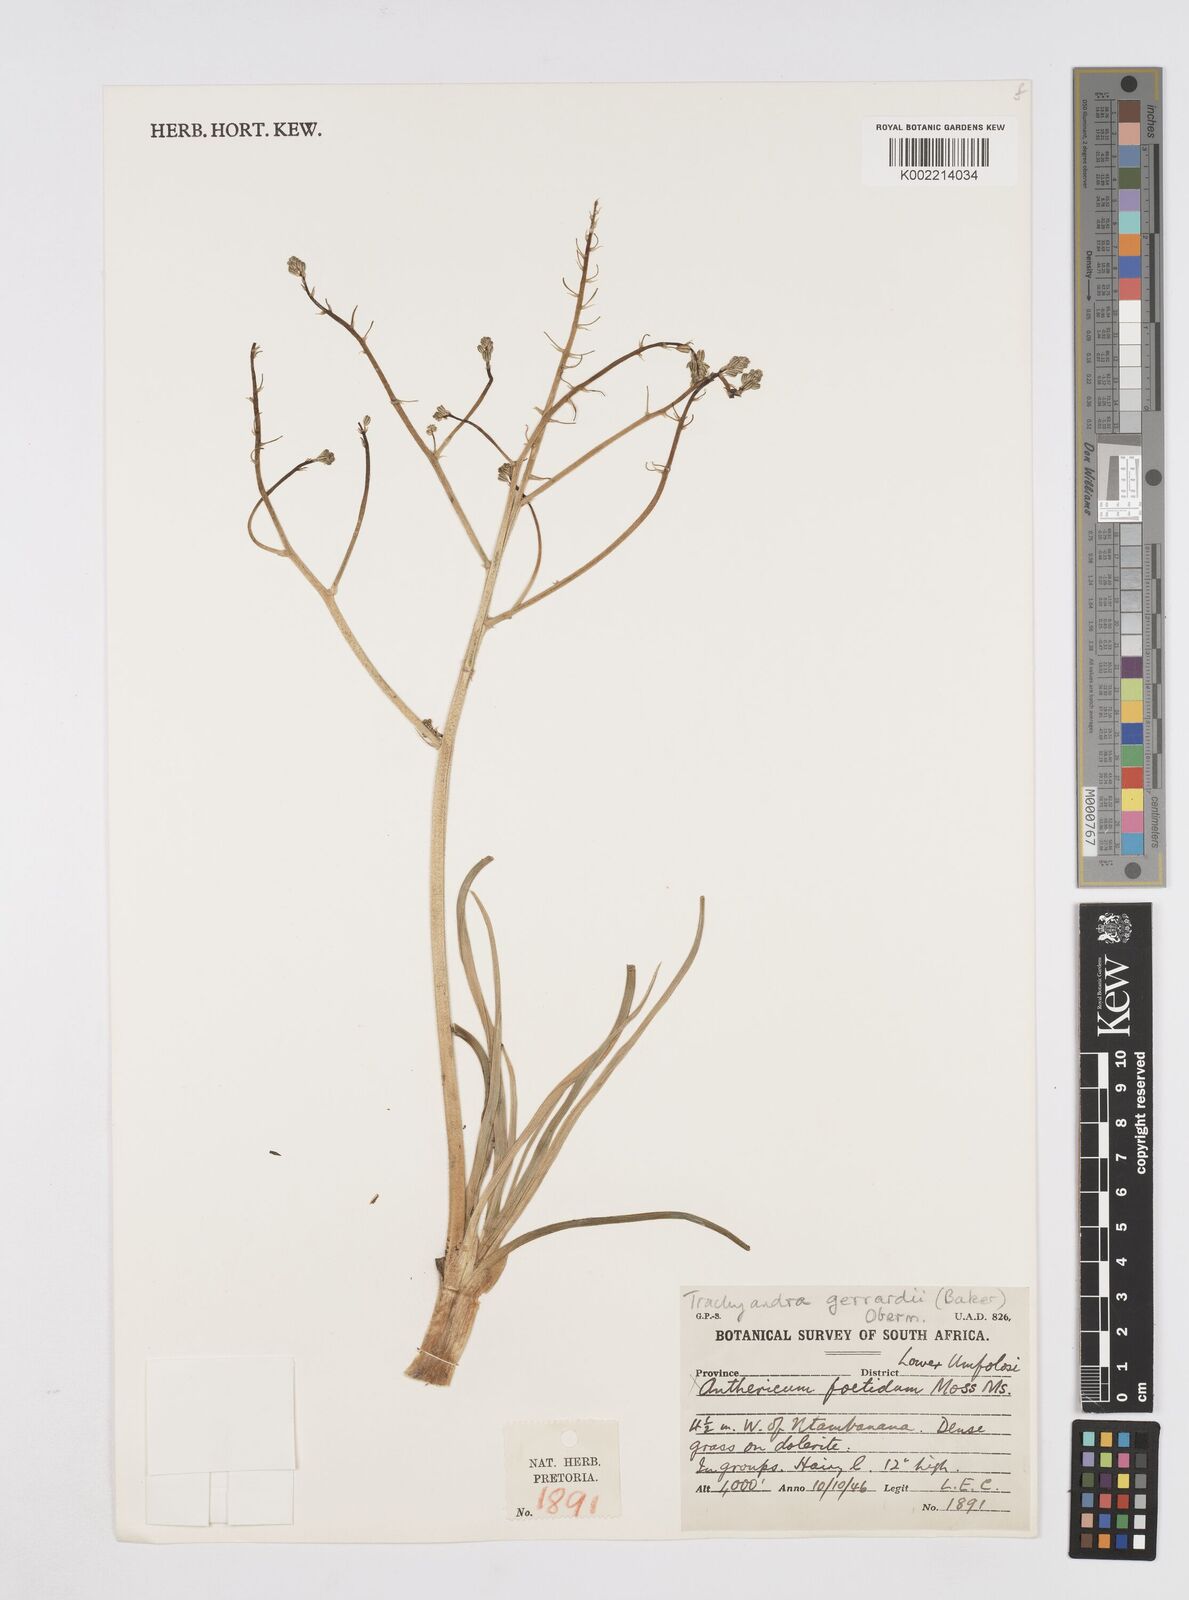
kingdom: Plantae
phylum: Tracheophyta
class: Liliopsida
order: Asparagales
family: Asphodelaceae
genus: Trachyandra
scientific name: Trachyandra gerrardii
